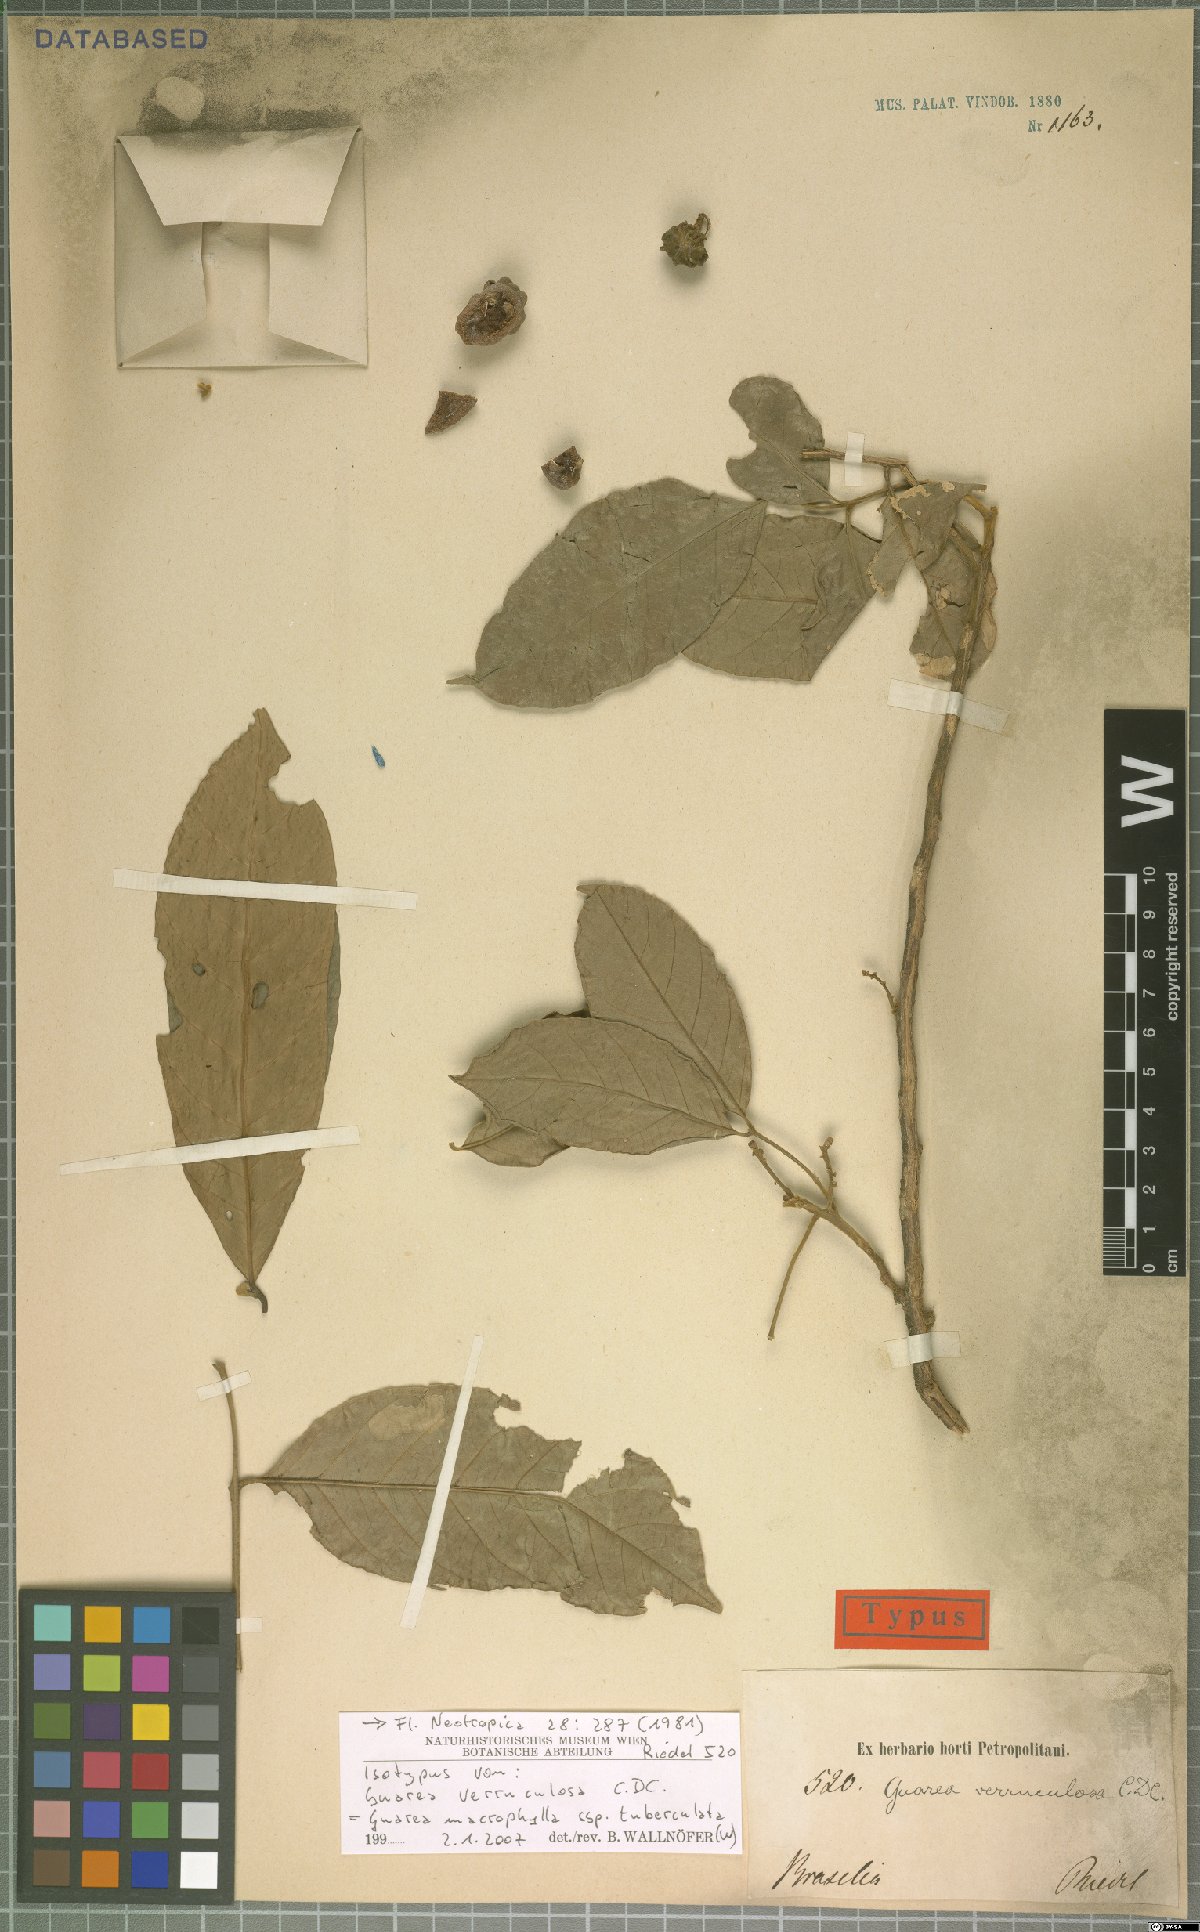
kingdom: Plantae
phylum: Tracheophyta
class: Magnoliopsida
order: Sapindales
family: Meliaceae
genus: Guarea
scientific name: Guarea macrophylla
